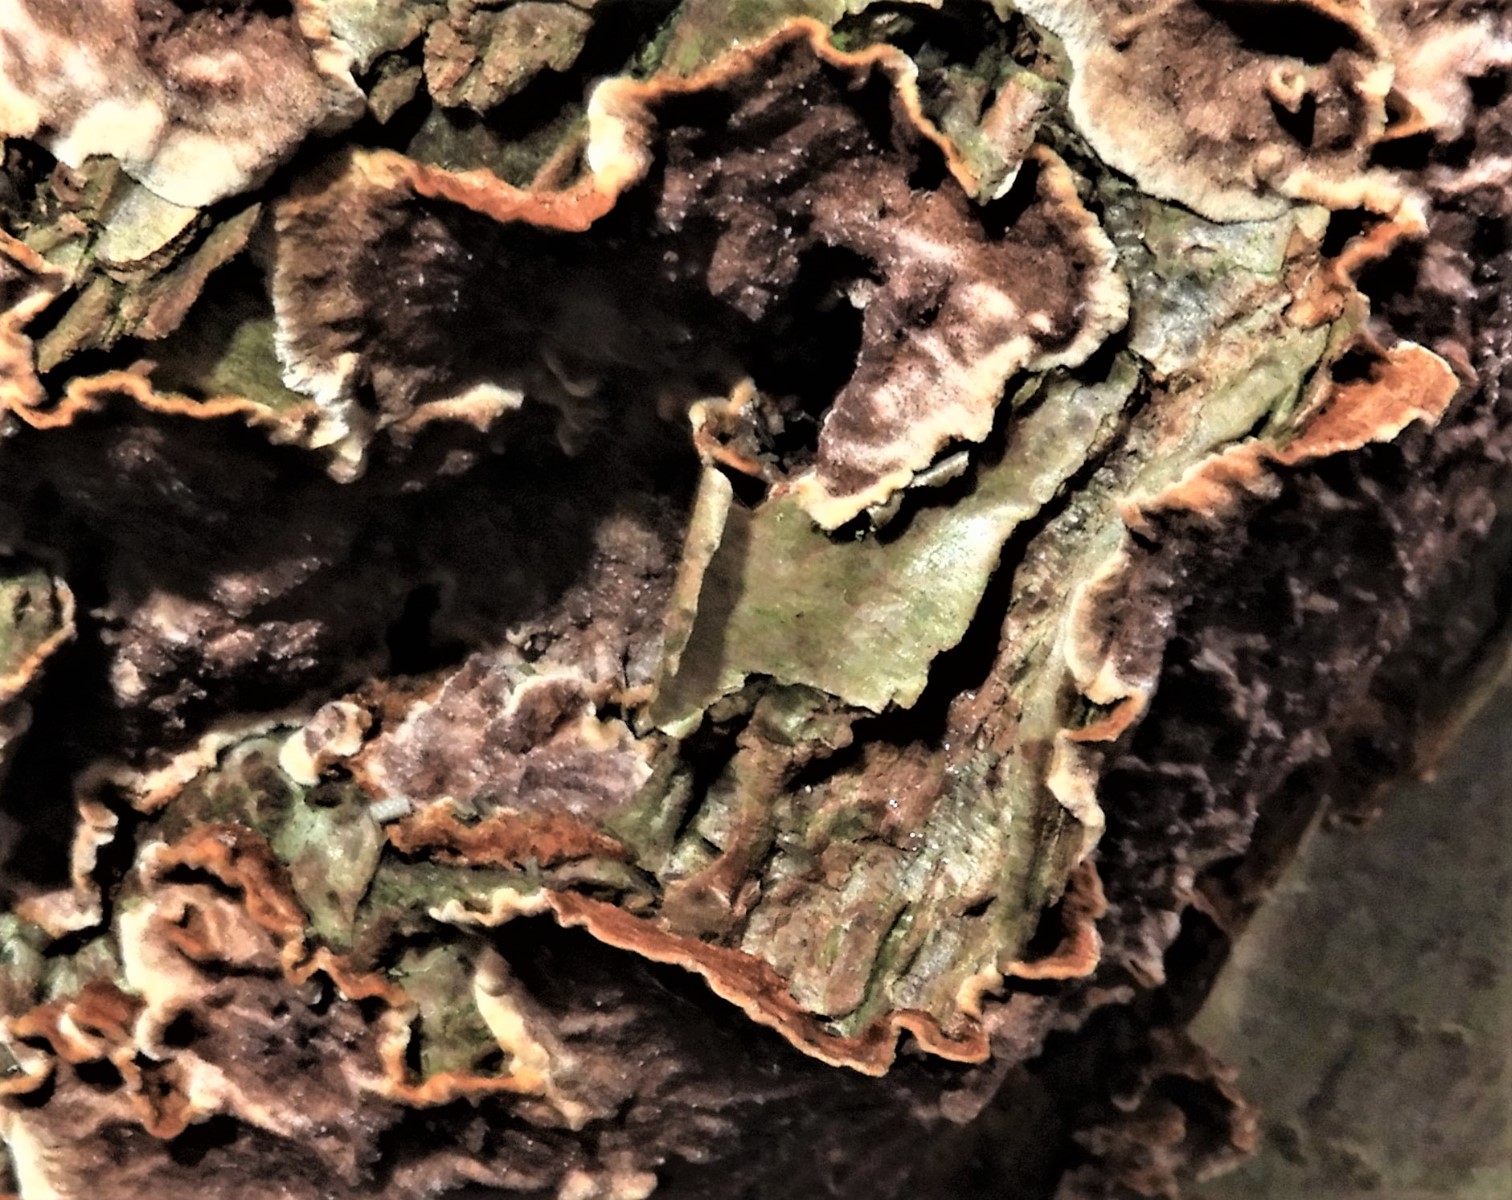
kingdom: Fungi
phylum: Basidiomycota
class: Agaricomycetes
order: Hymenochaetales
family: Hymenochaetaceae
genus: Hydnoporia
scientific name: Hydnoporia tabacina
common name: tobaksbrun ruslædersvamp
